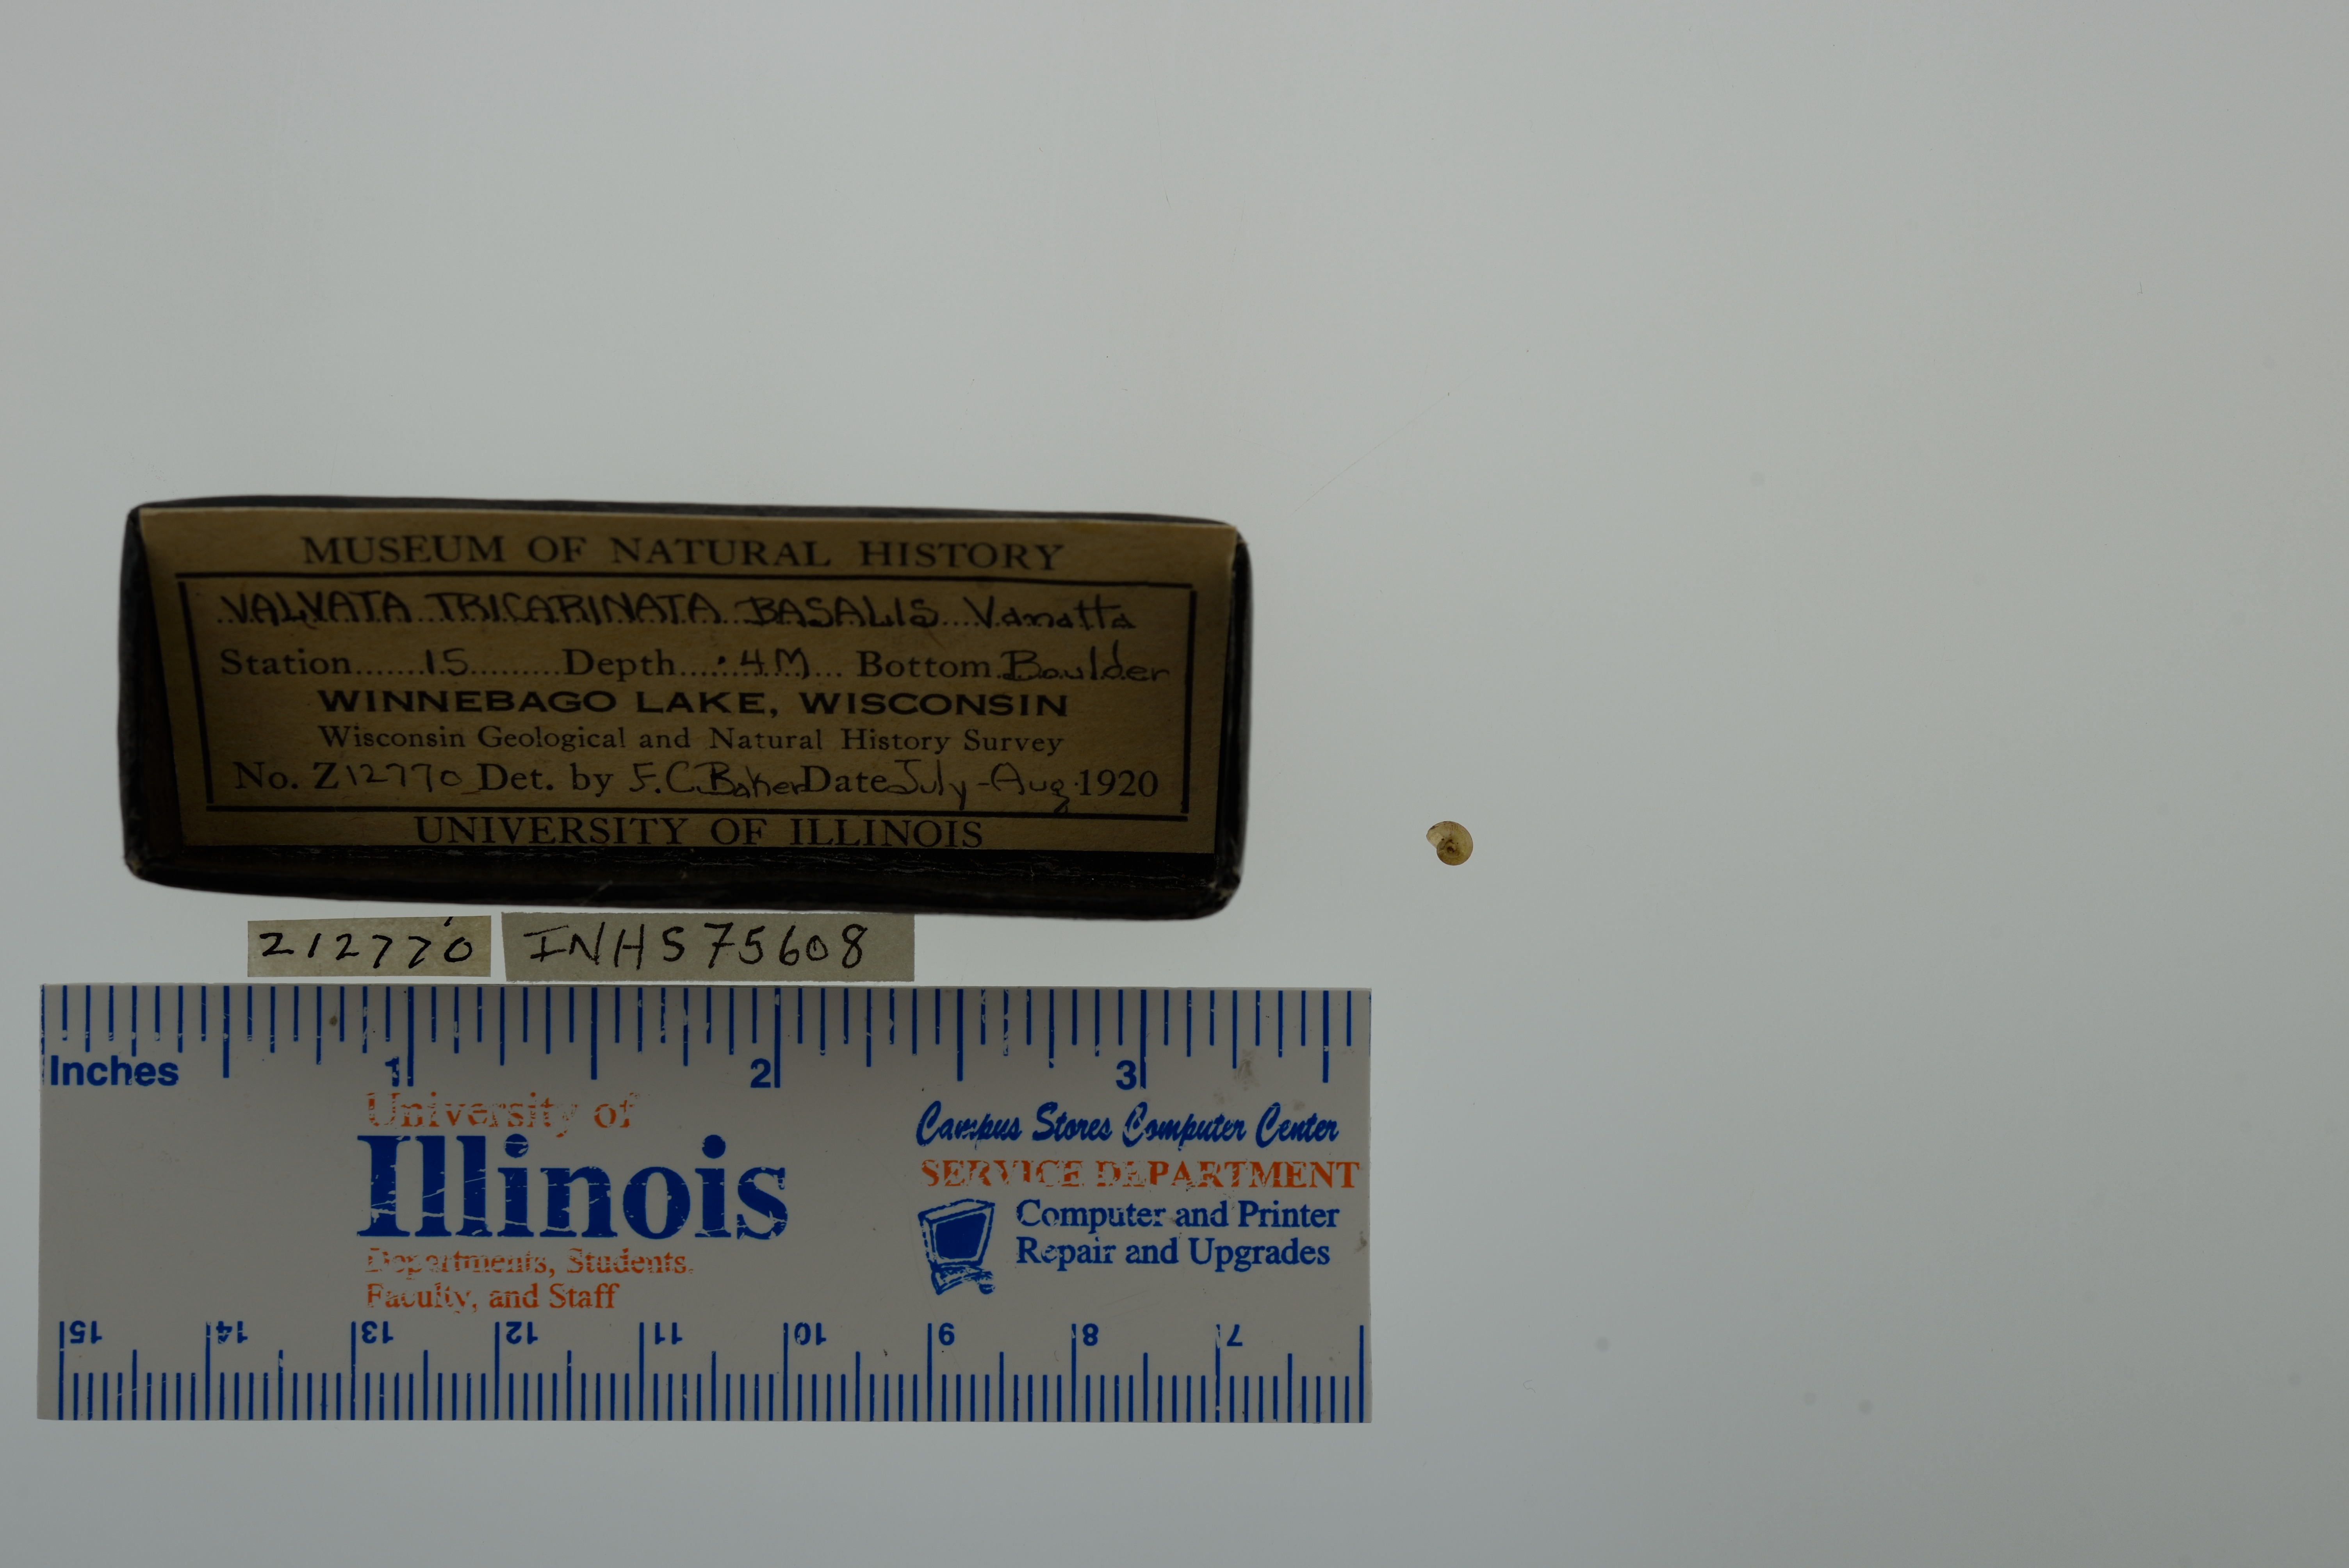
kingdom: Animalia
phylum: Mollusca
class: Gastropoda
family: Valvatidae
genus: Valvata
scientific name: Valvata tricarinata
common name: Three-ridge valvata
